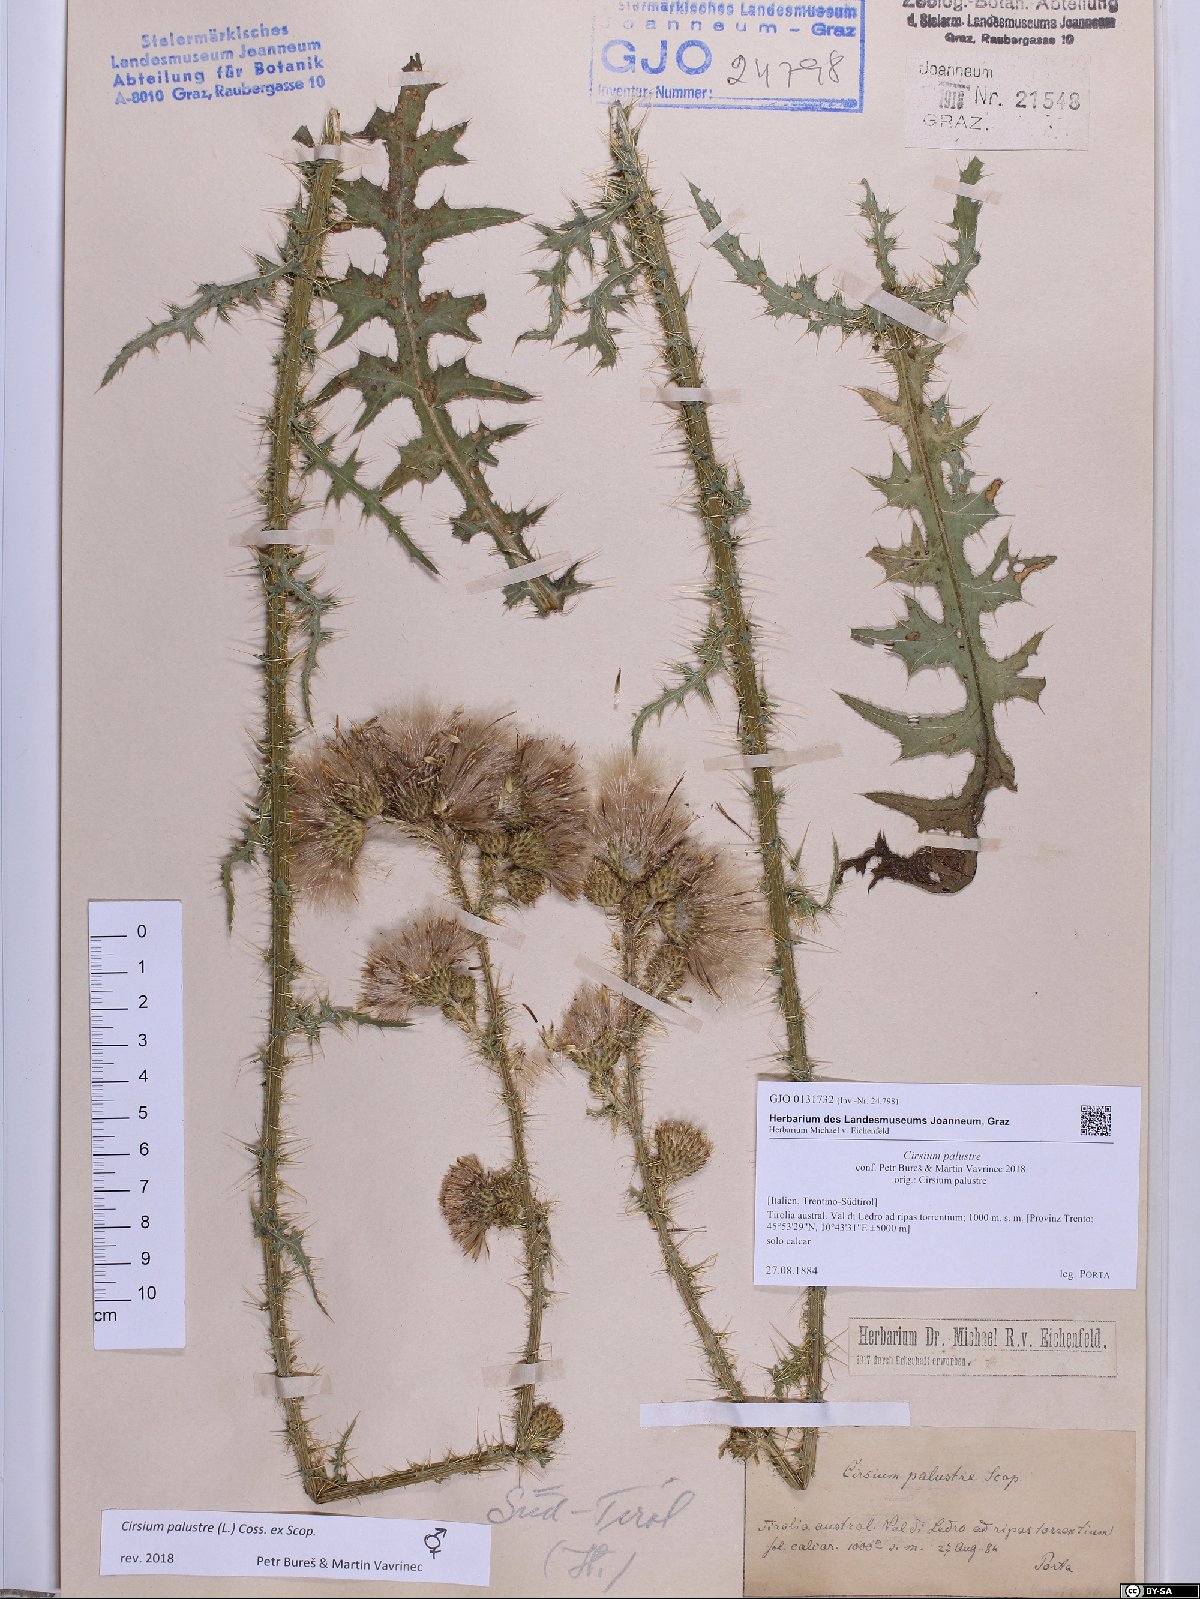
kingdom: Plantae
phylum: Tracheophyta
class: Magnoliopsida
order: Asterales
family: Asteraceae
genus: Cirsium
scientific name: Cirsium palustre
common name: Marsh thistle
